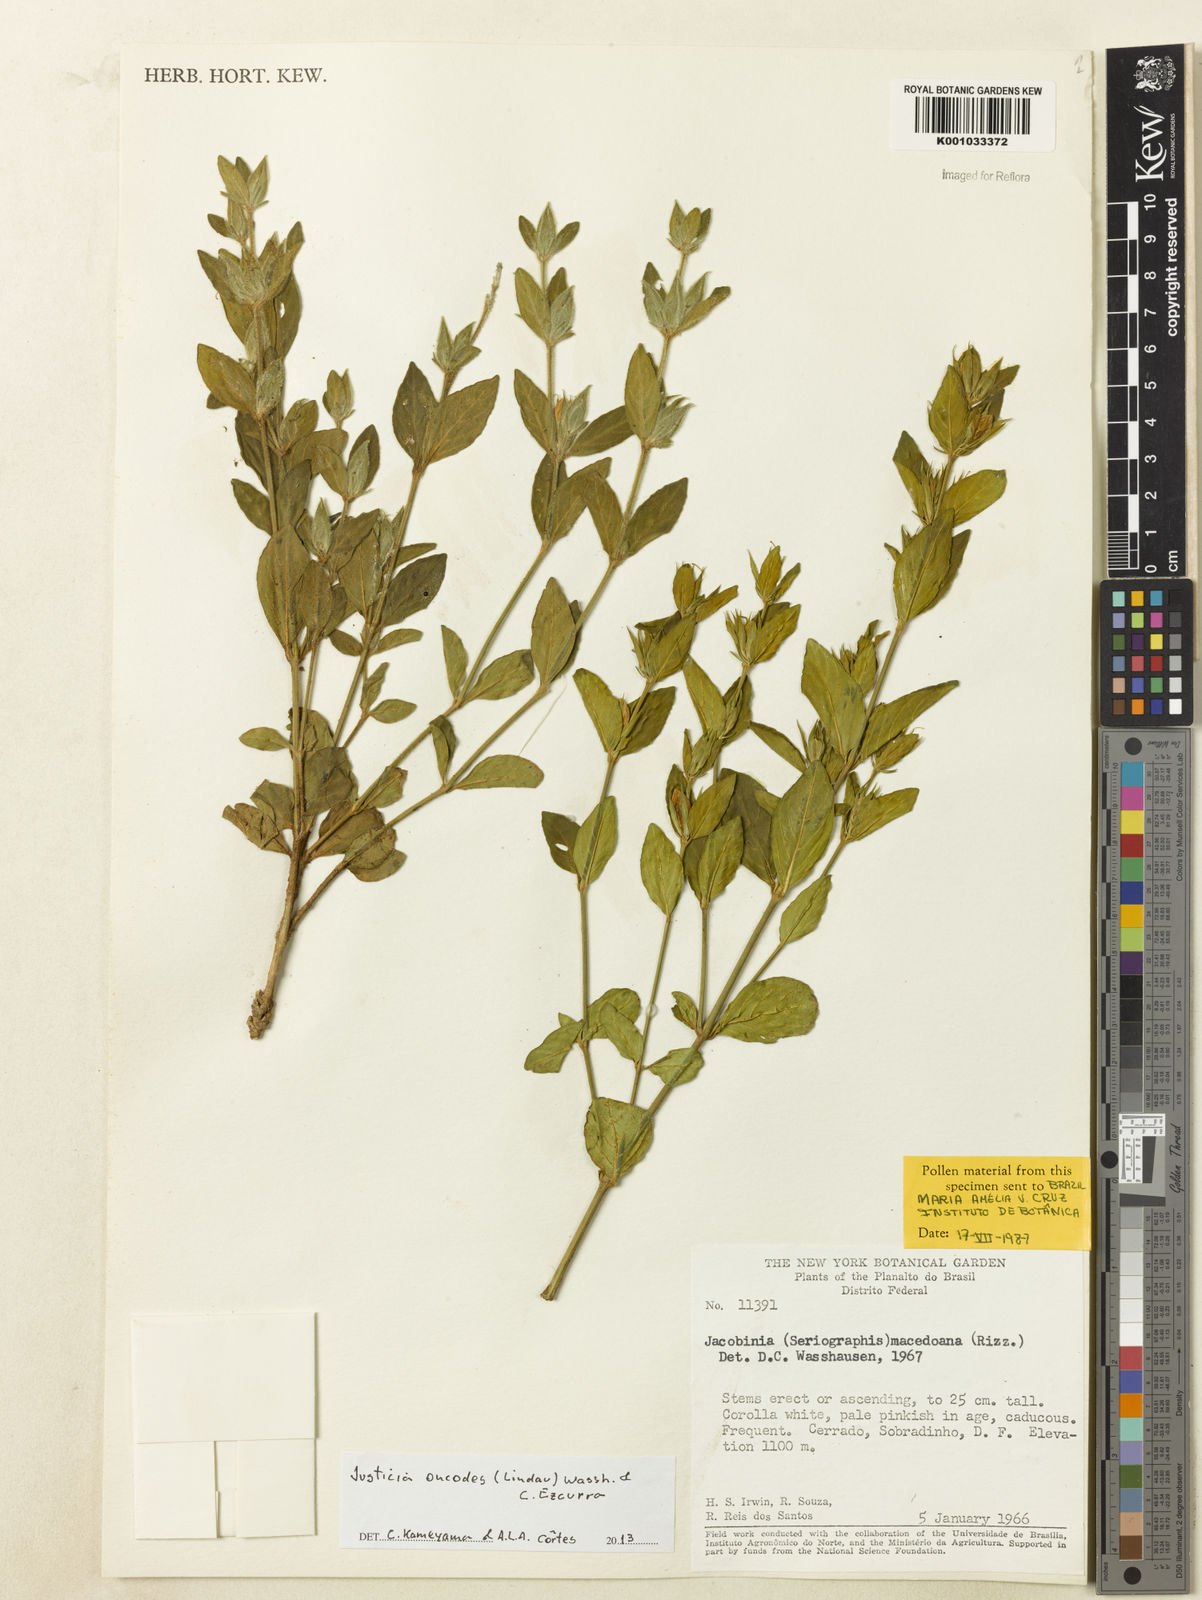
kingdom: Plantae
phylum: Tracheophyta
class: Magnoliopsida
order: Lamiales
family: Acanthaceae
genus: Justicia
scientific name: Justicia oncodes
